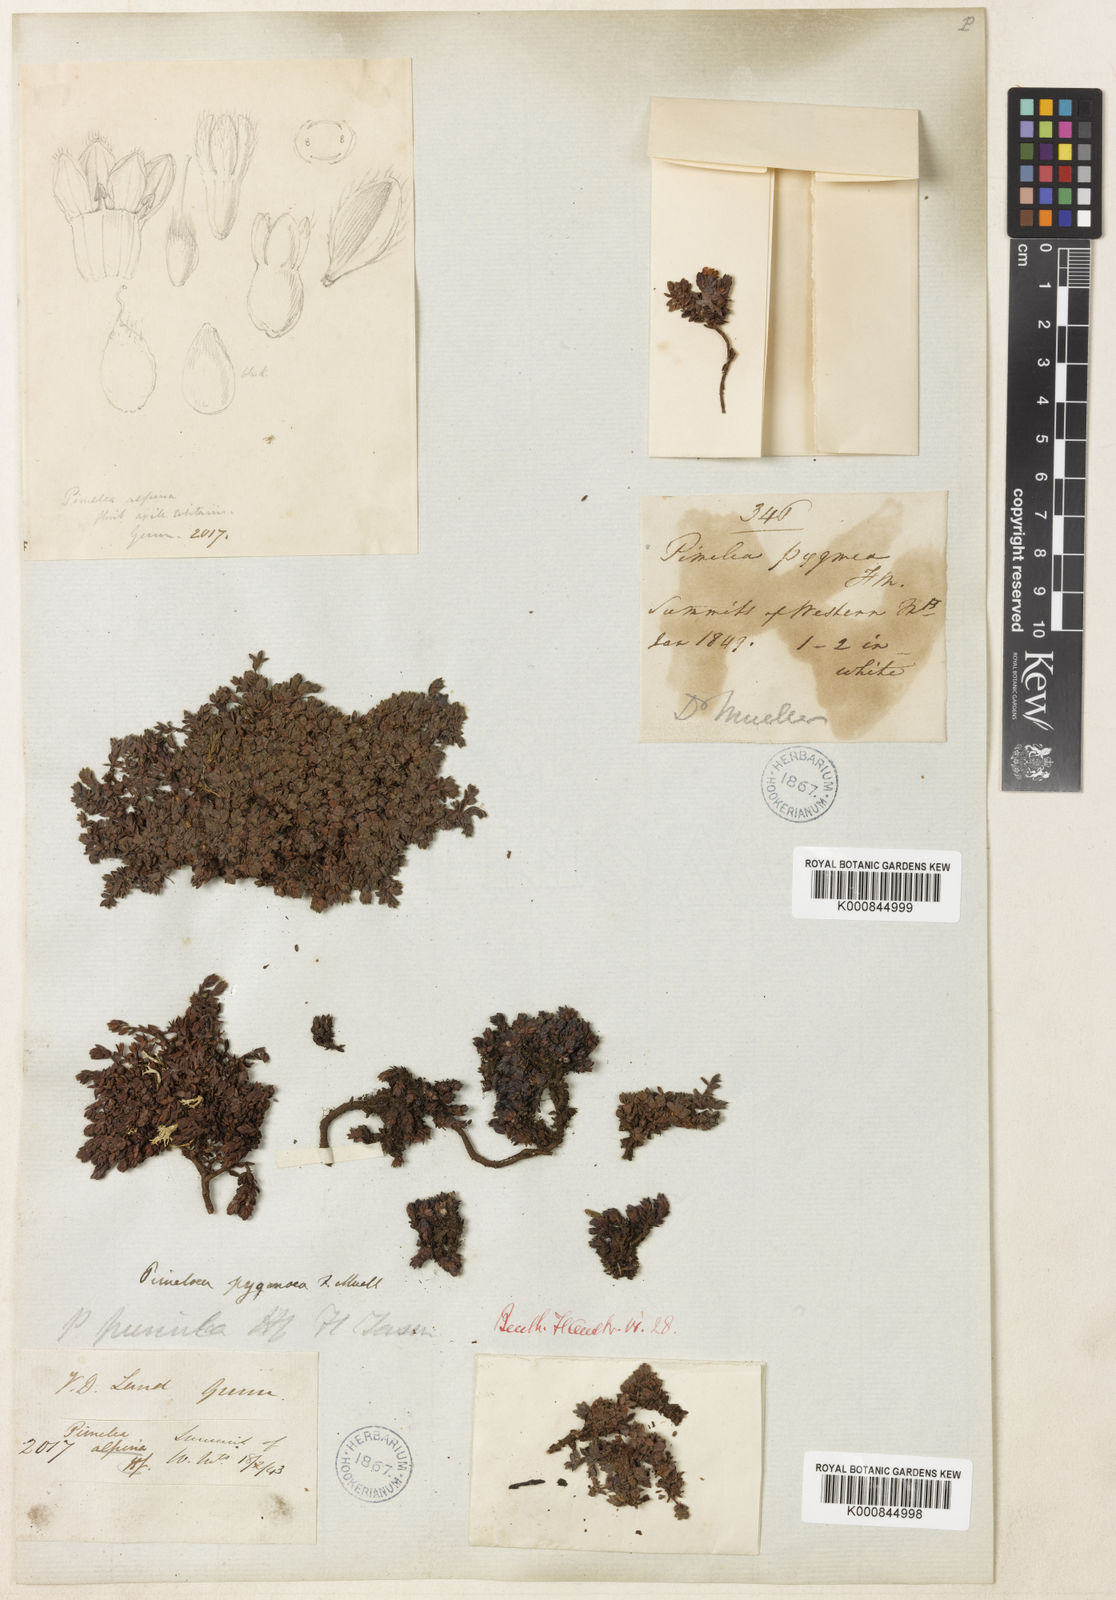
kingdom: Plantae
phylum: Tracheophyta
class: Magnoliopsida
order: Malvales
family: Thymelaeaceae
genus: Pimelea
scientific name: Pimelea pygmaea
